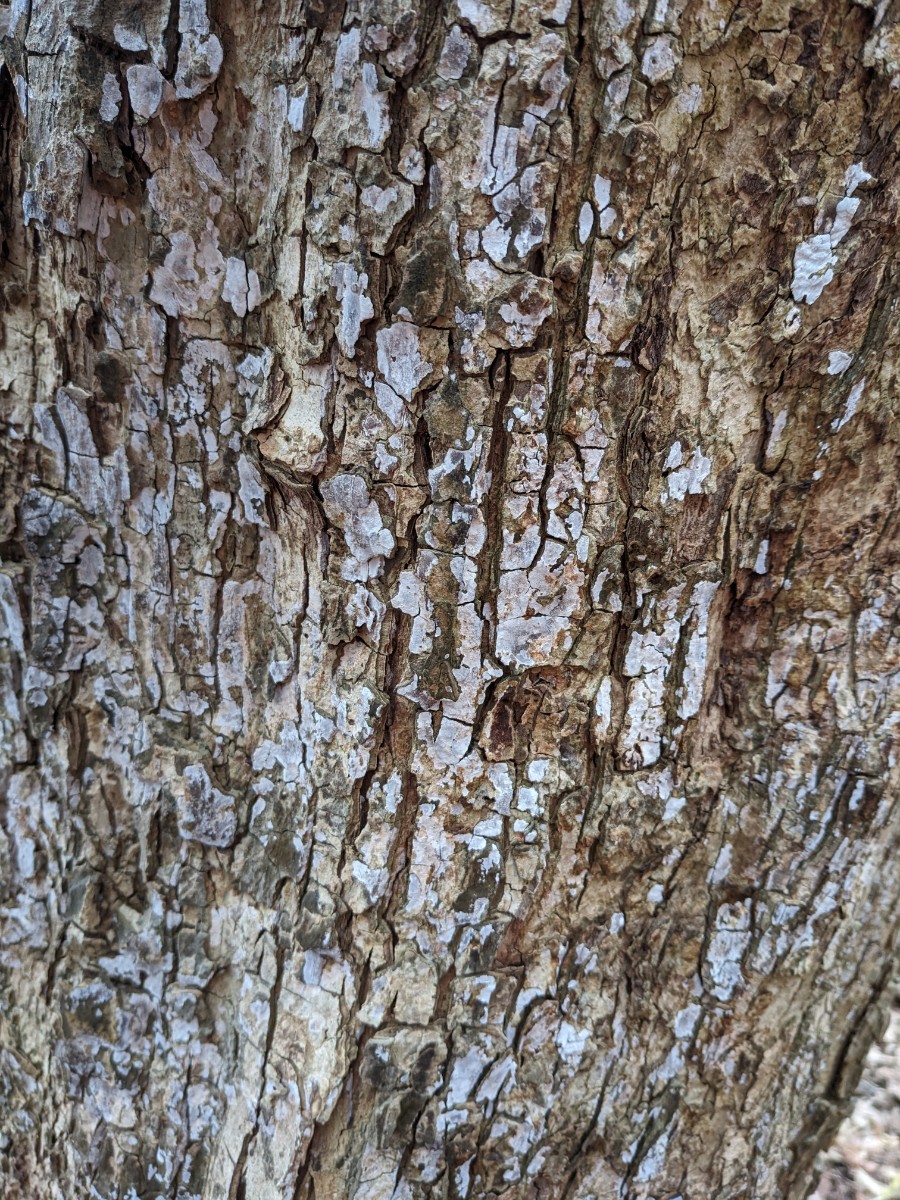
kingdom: Fungi
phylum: Basidiomycota
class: Agaricomycetes
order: Agaricales
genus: Dendrothele
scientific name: Dendrothele acerina
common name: navr-kalkplet
